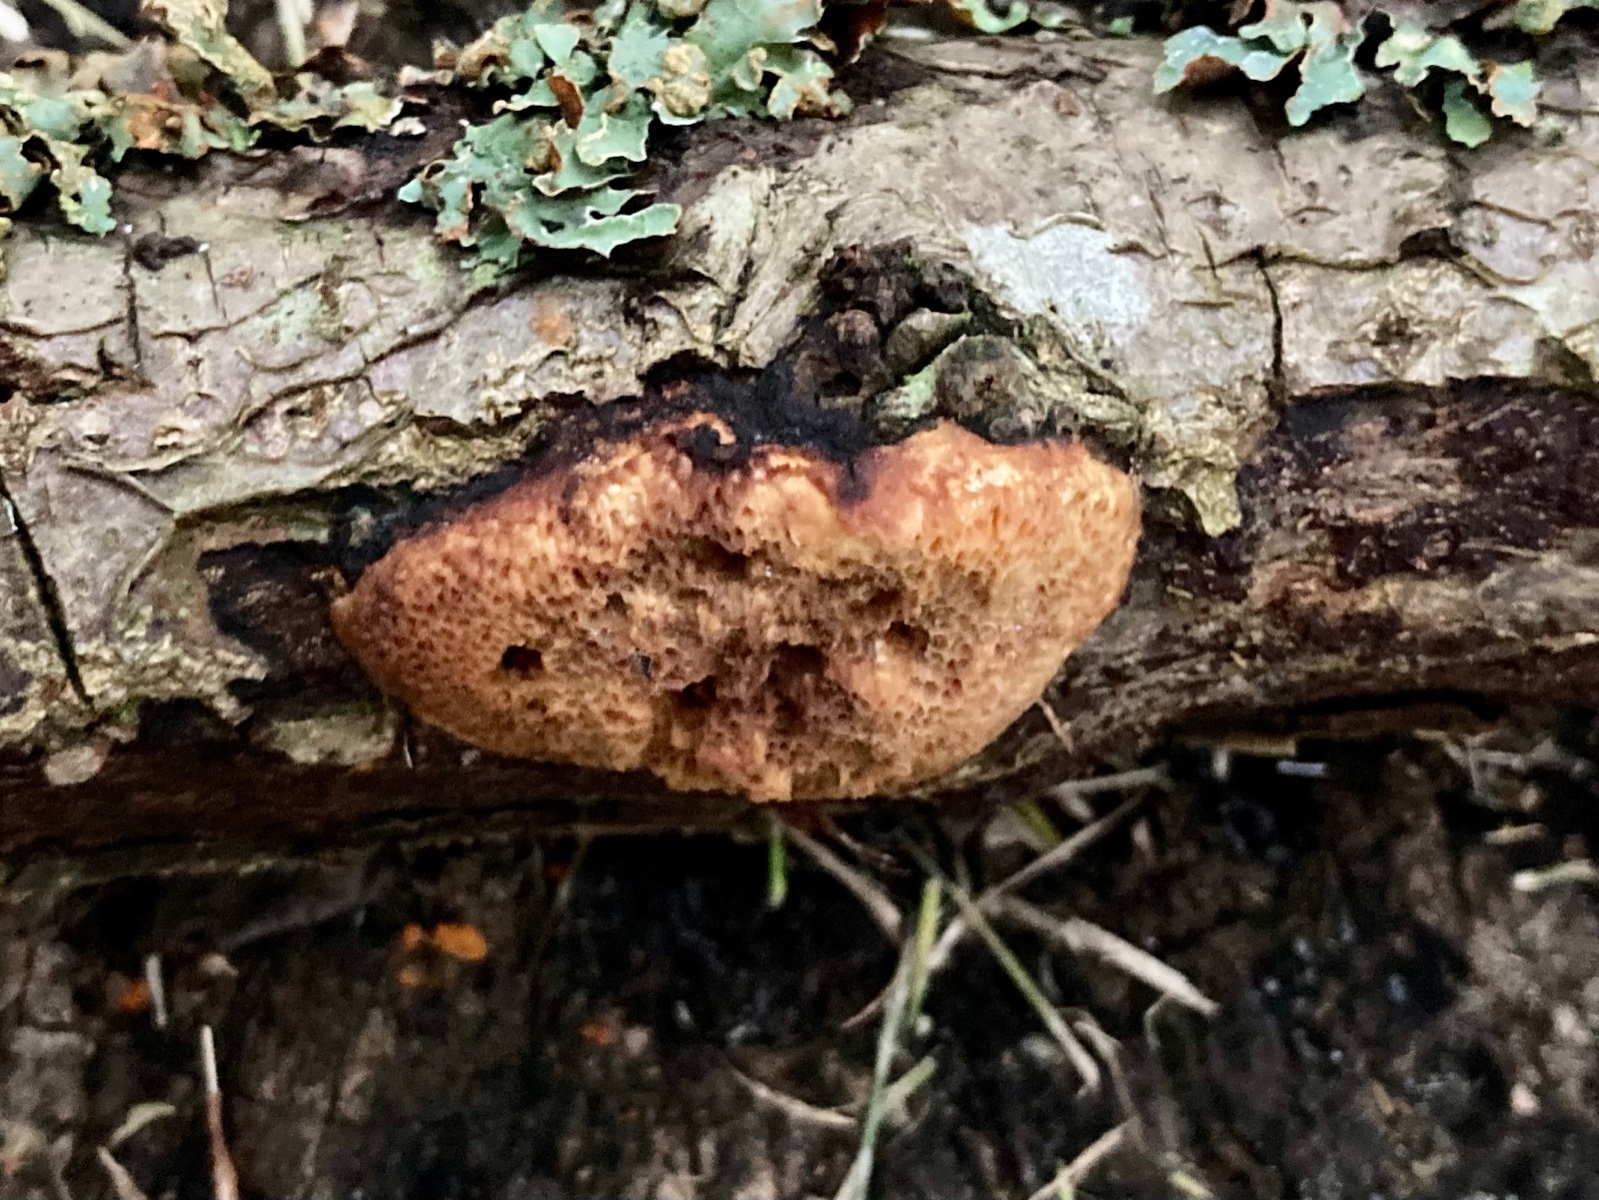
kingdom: Fungi
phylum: Basidiomycota
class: Agaricomycetes
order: Polyporales
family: Polyporaceae
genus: Szczepkamyces
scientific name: Szczepkamyces campestris
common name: hasselporesvamp
